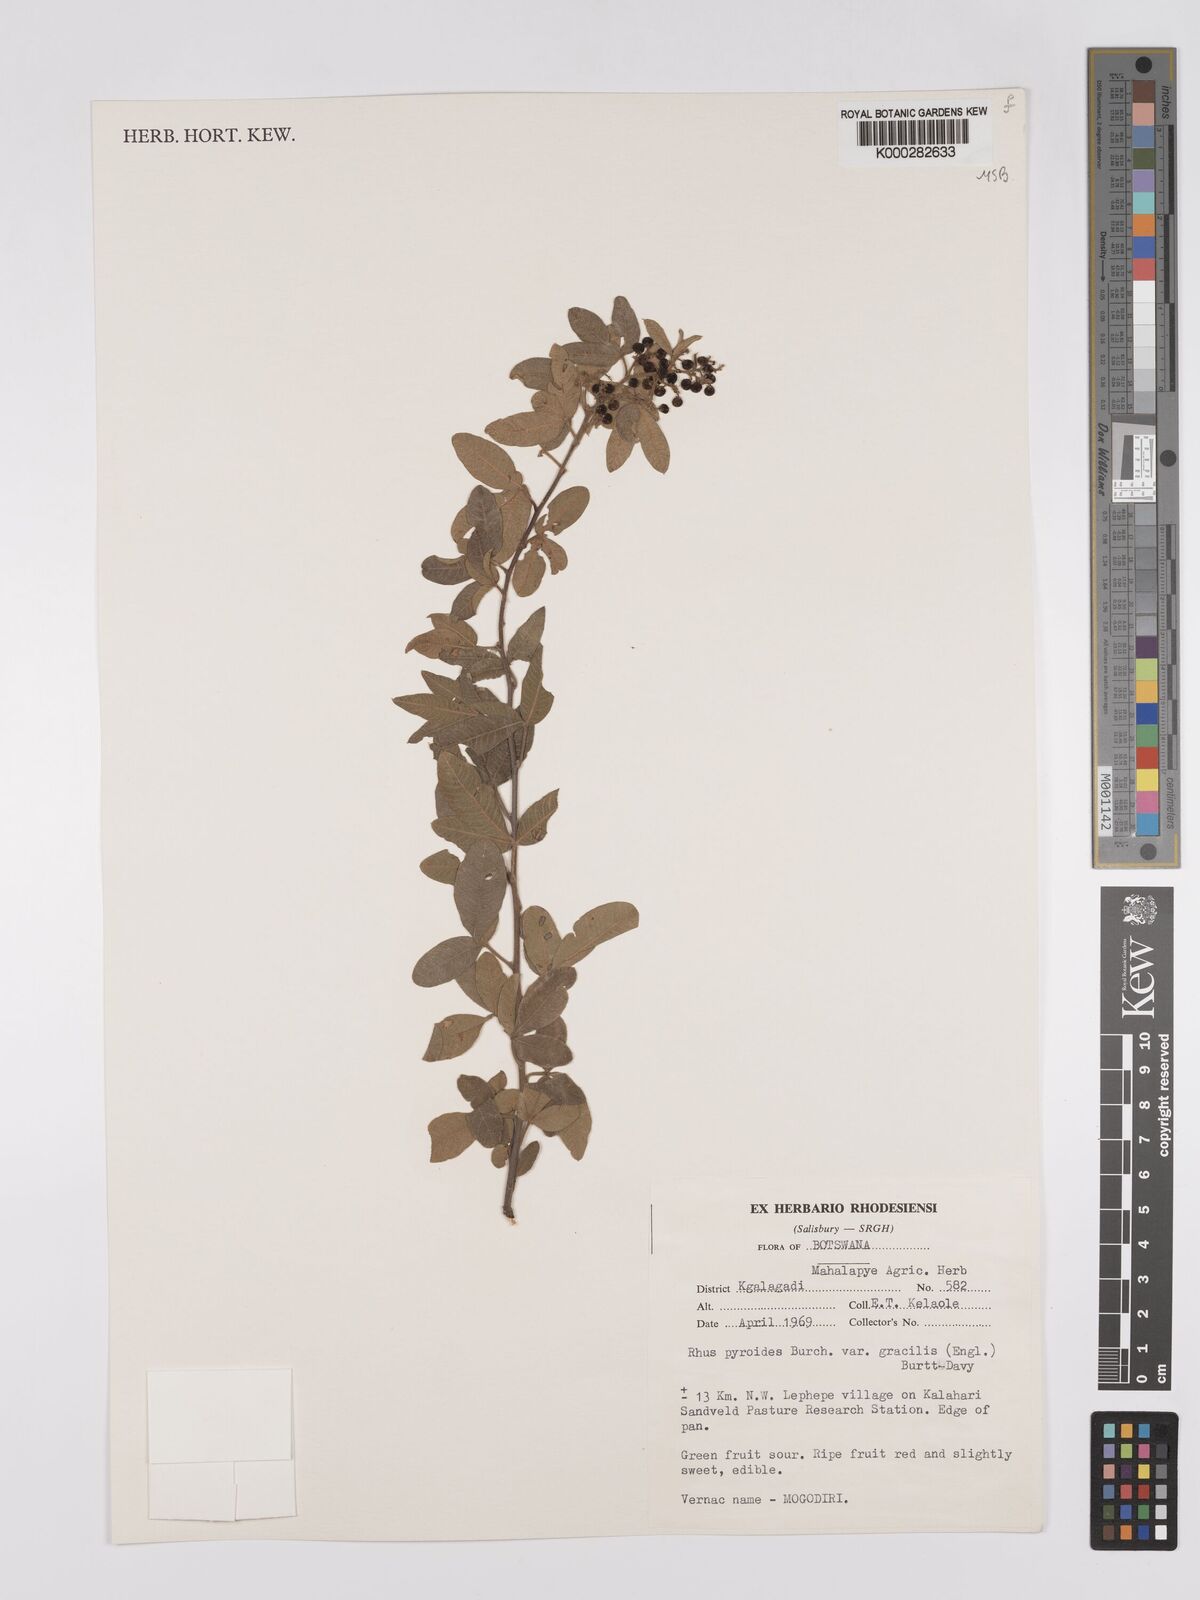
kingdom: Plantae
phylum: Tracheophyta
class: Magnoliopsida
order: Sapindales
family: Anacardiaceae
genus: Searsia
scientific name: Searsia pyroides
